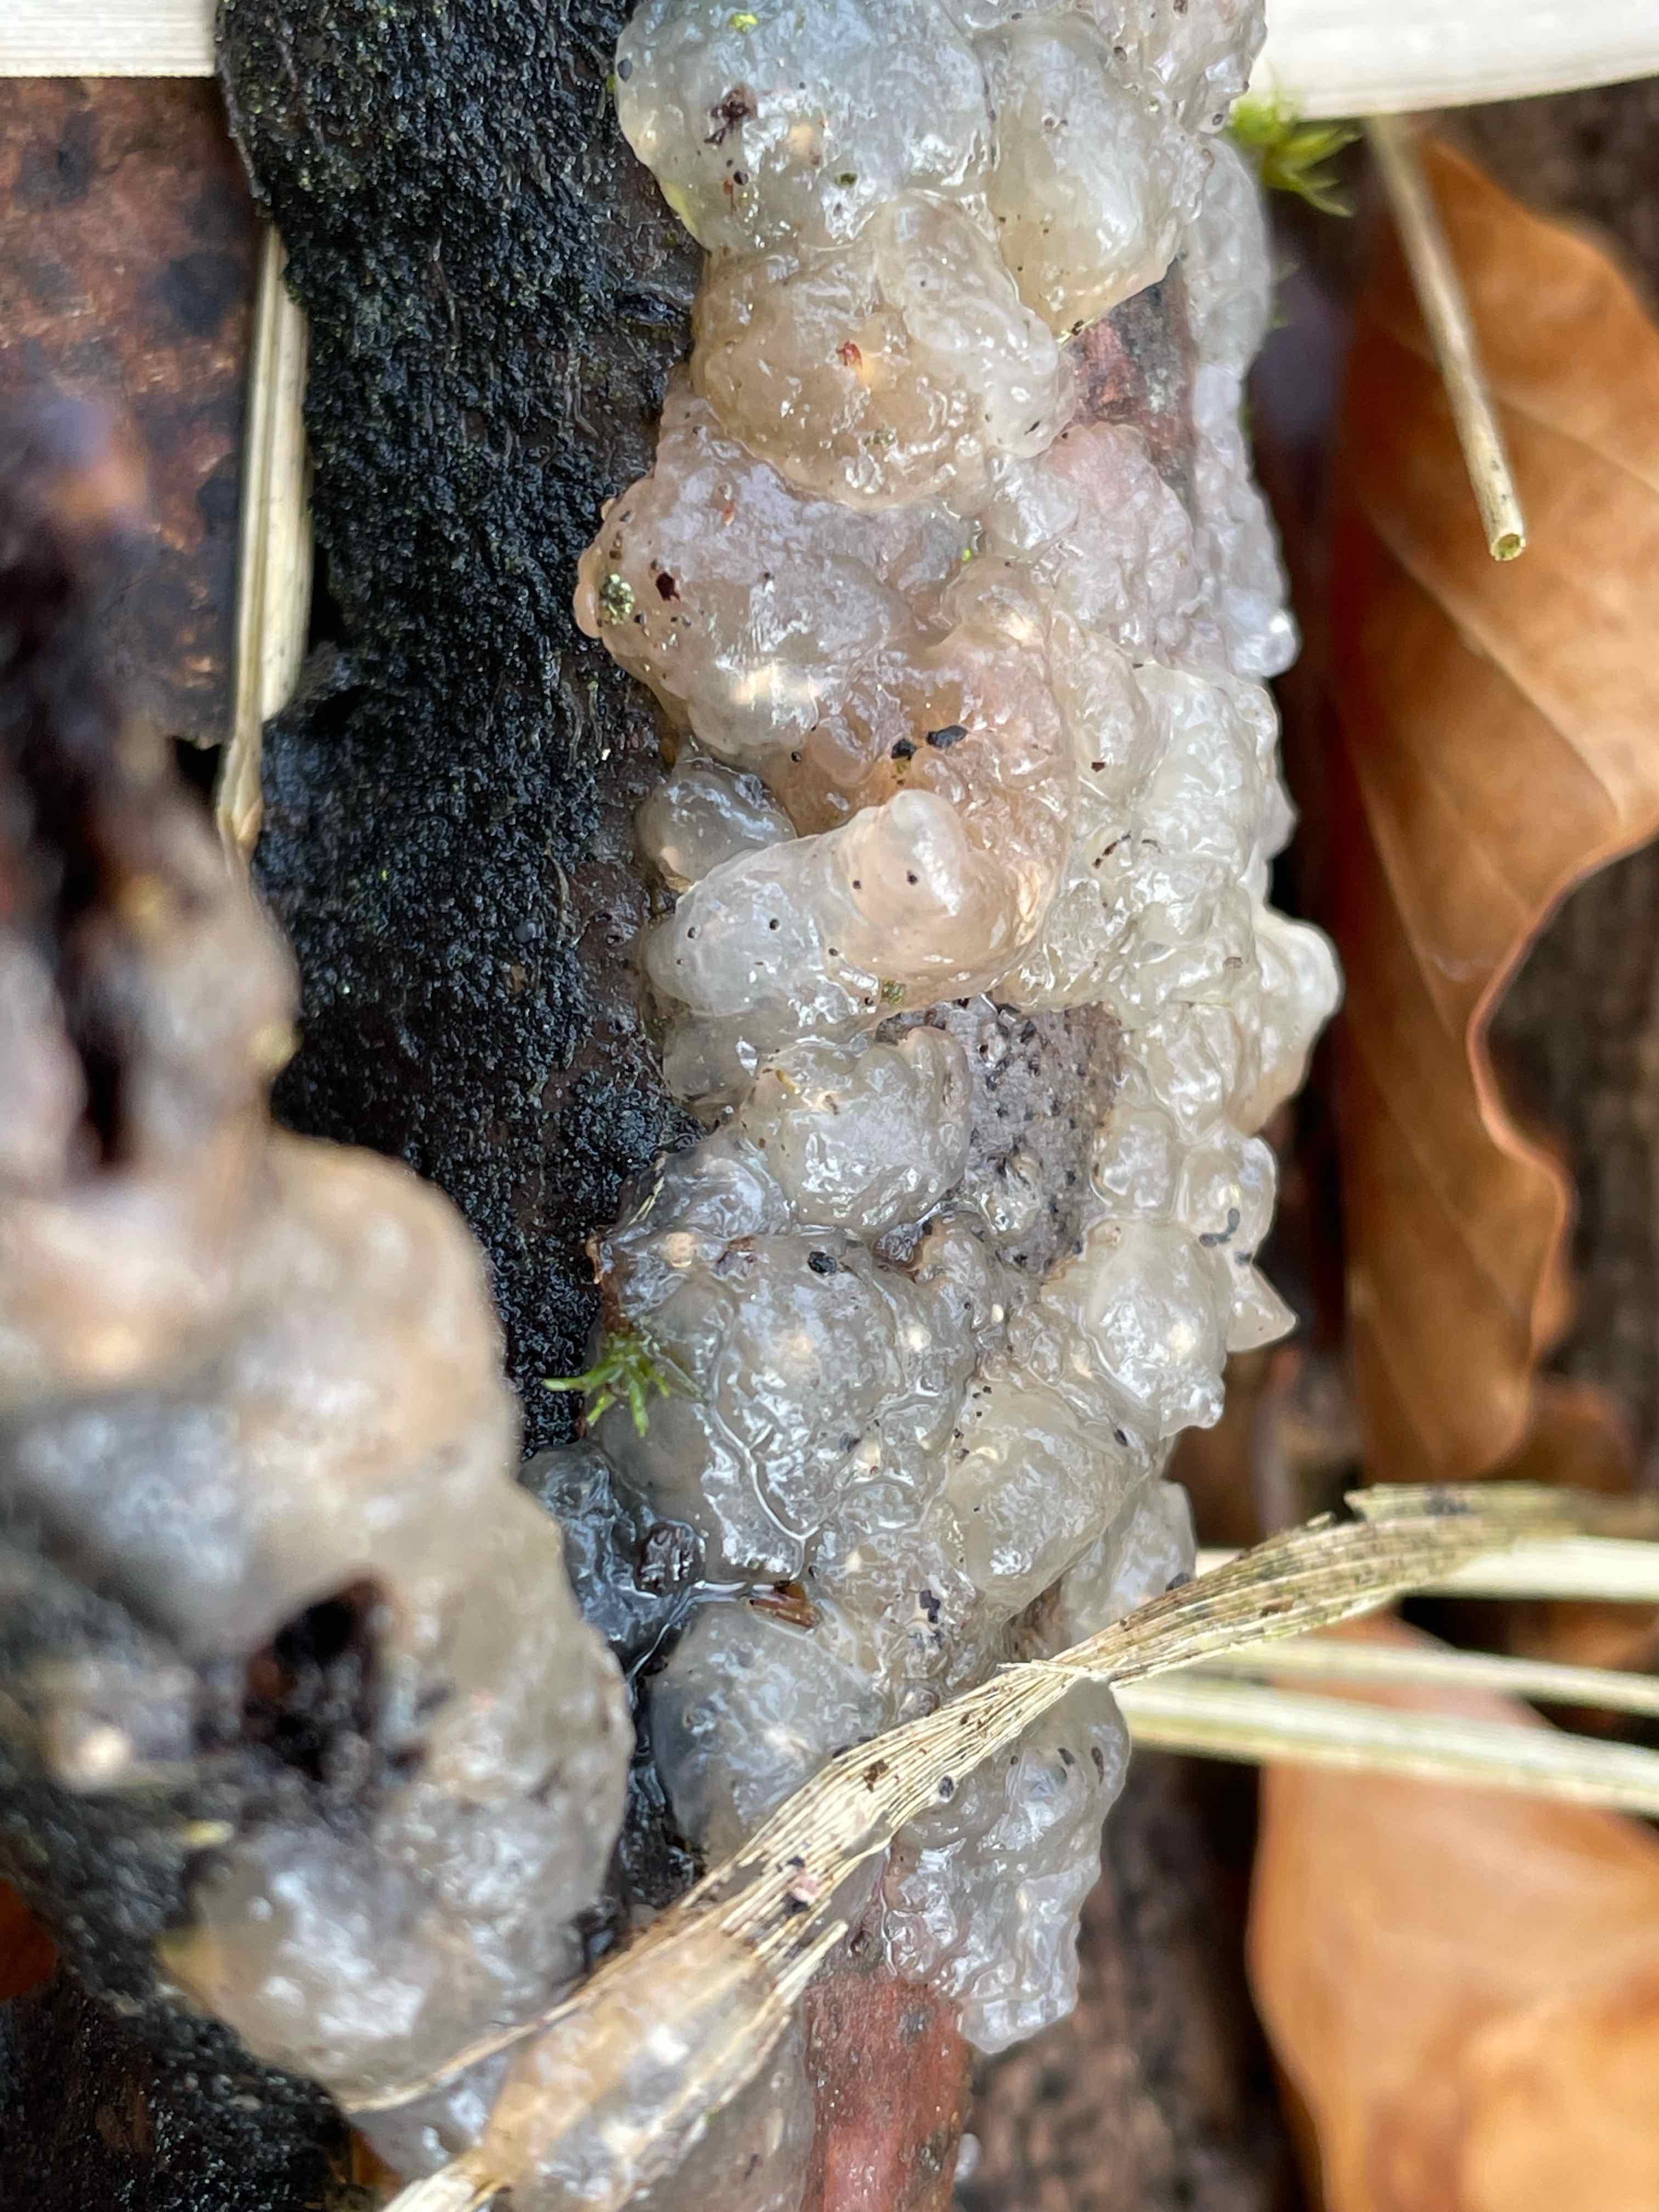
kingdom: Fungi
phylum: Basidiomycota
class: Agaricomycetes
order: Auriculariales
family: Hyaloriaceae
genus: Myxarium
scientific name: Myxarium nucleatum
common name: klar bævretop
